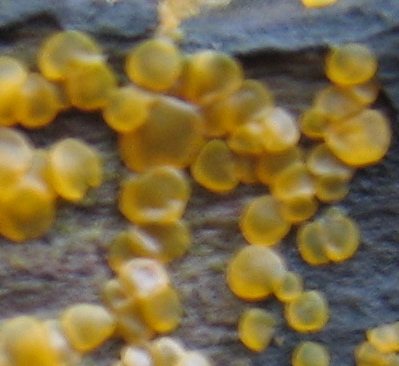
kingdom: Fungi
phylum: Ascomycota
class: Orbiliomycetes
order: Orbiliales
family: Orbiliaceae
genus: Orbilia
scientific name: Orbilia xanthostigma
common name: krumsporet voksskive
